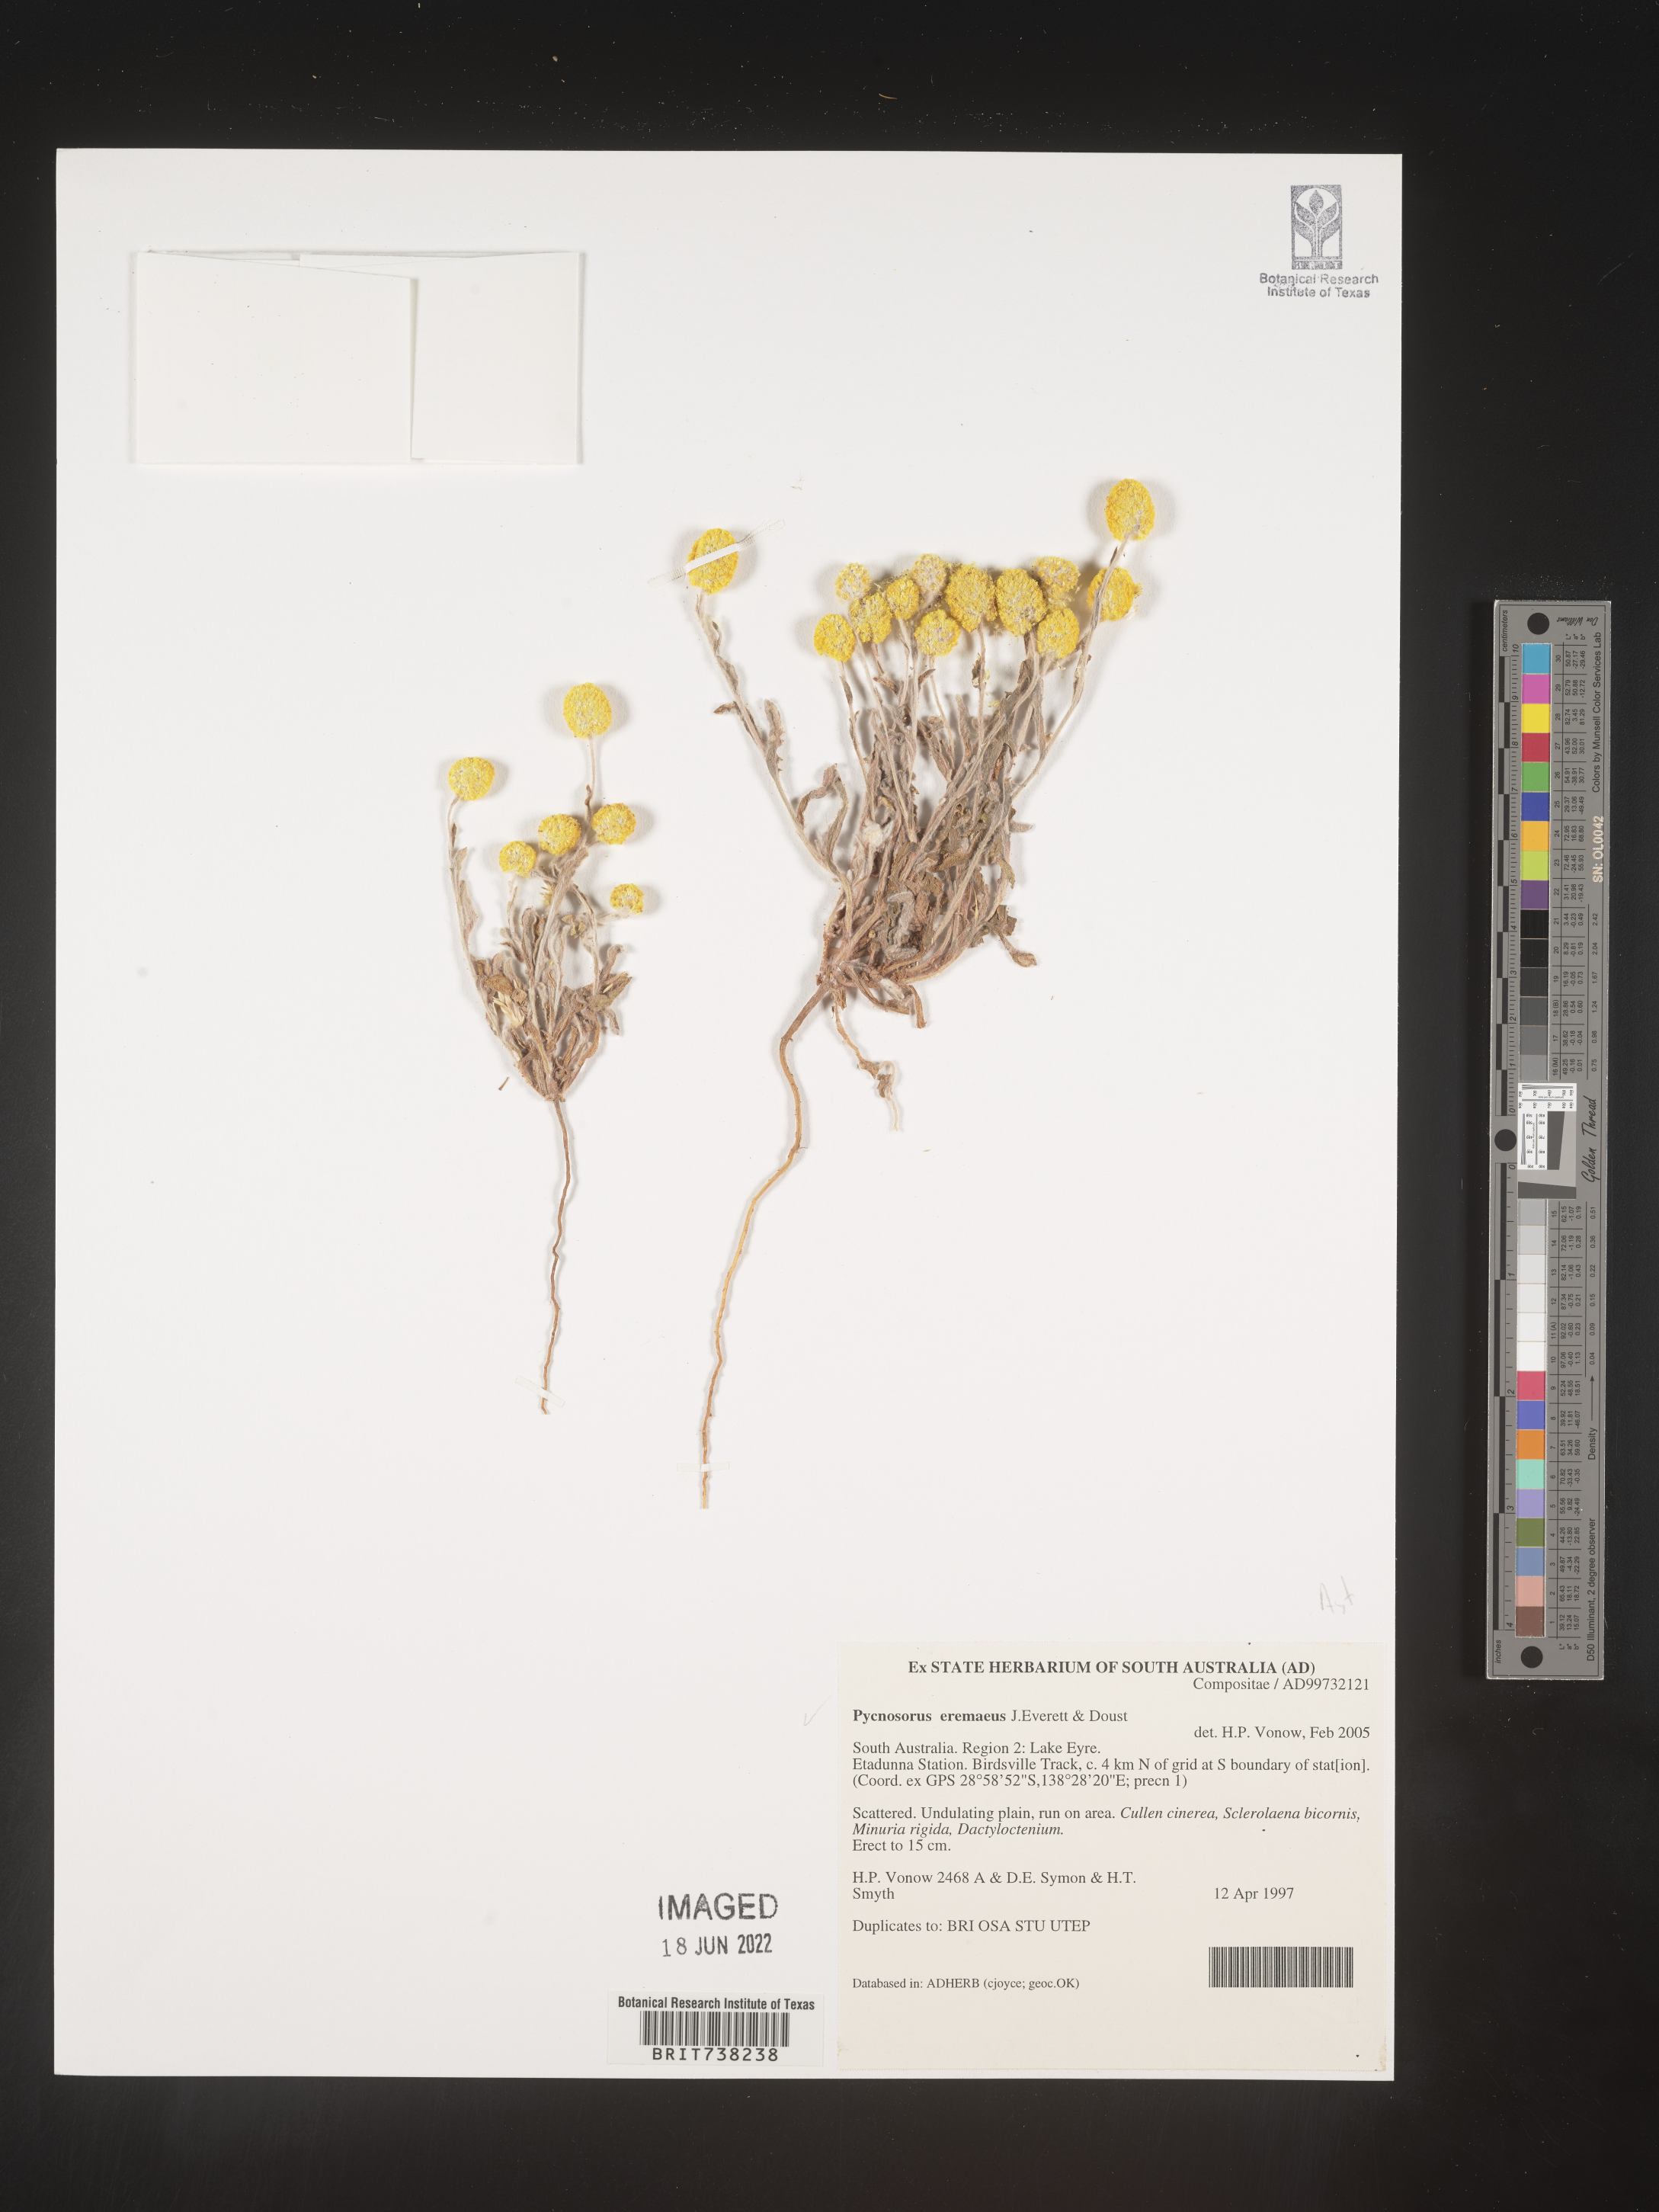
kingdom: Plantae
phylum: Tracheophyta
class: Magnoliopsida
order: Asterales
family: Asteraceae
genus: Pycnosorus
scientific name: Pycnosorus
